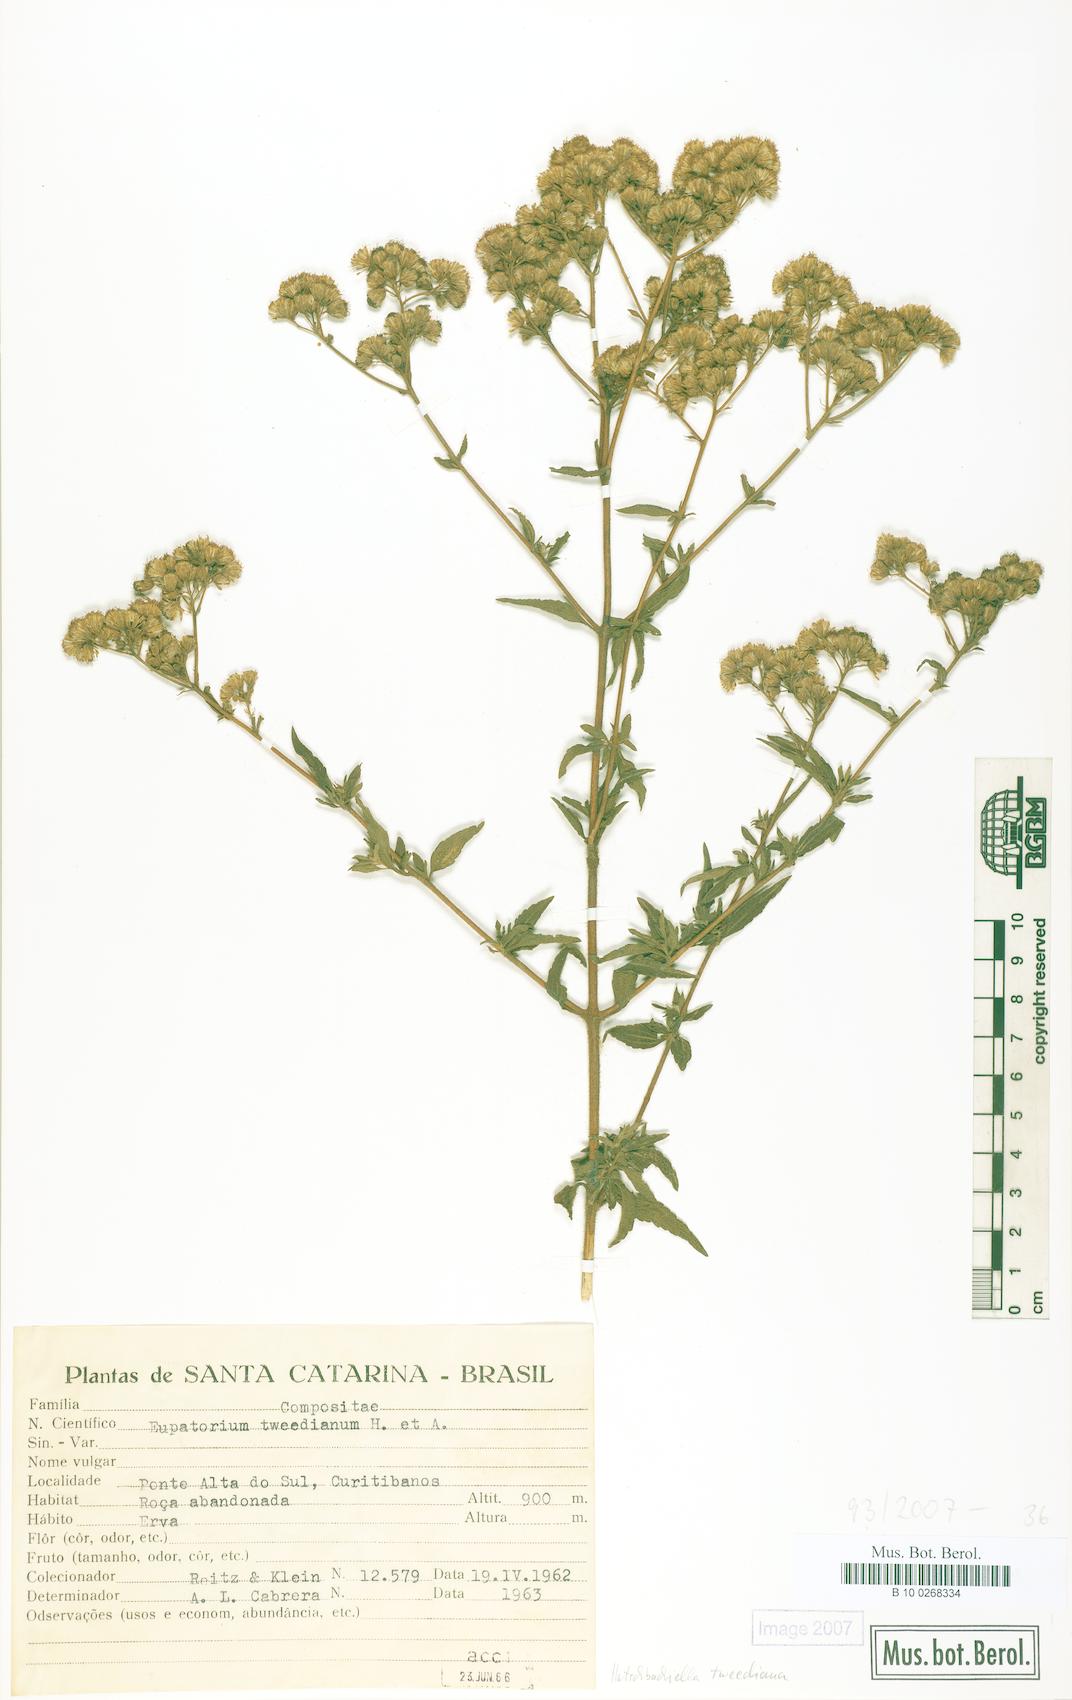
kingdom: Plantae
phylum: Tracheophyta
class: Magnoliopsida
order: Asterales
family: Asteraceae
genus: Hatschbachiella
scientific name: Hatschbachiella tweedieana
